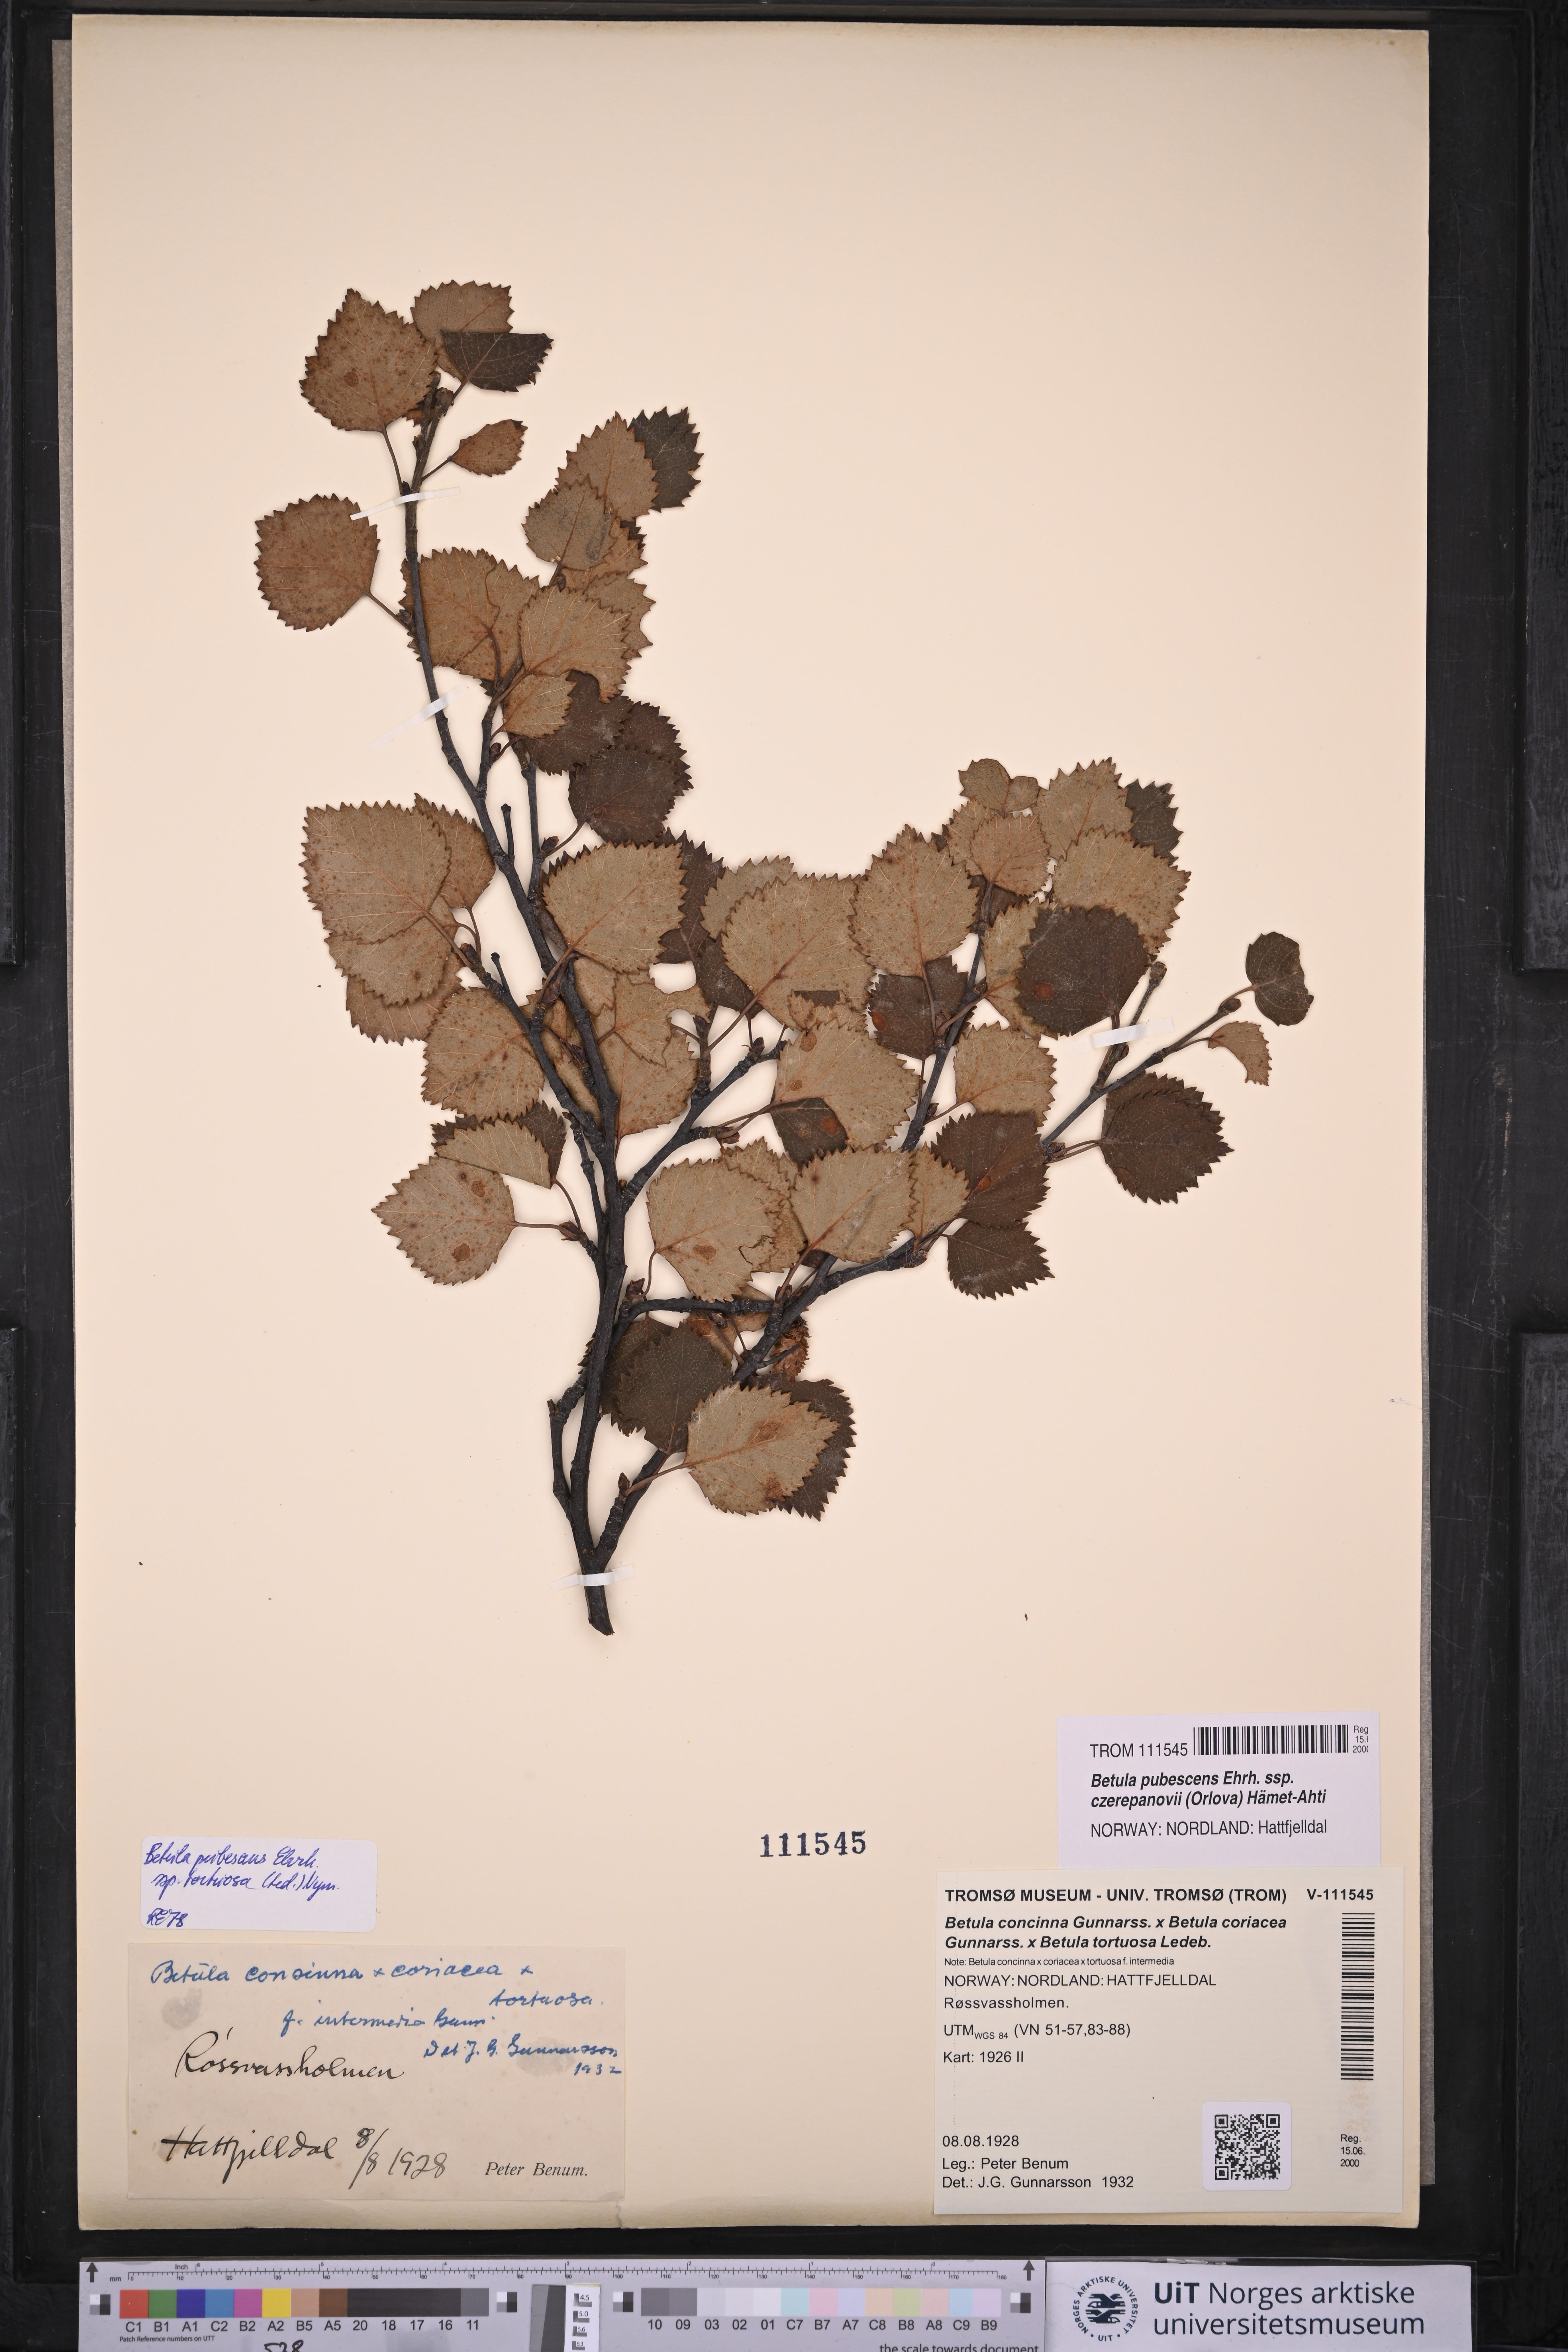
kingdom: Plantae
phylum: Tracheophyta
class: Magnoliopsida
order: Fagales
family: Betulaceae
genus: Betula
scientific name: Betula pubescens
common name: Downy birch
